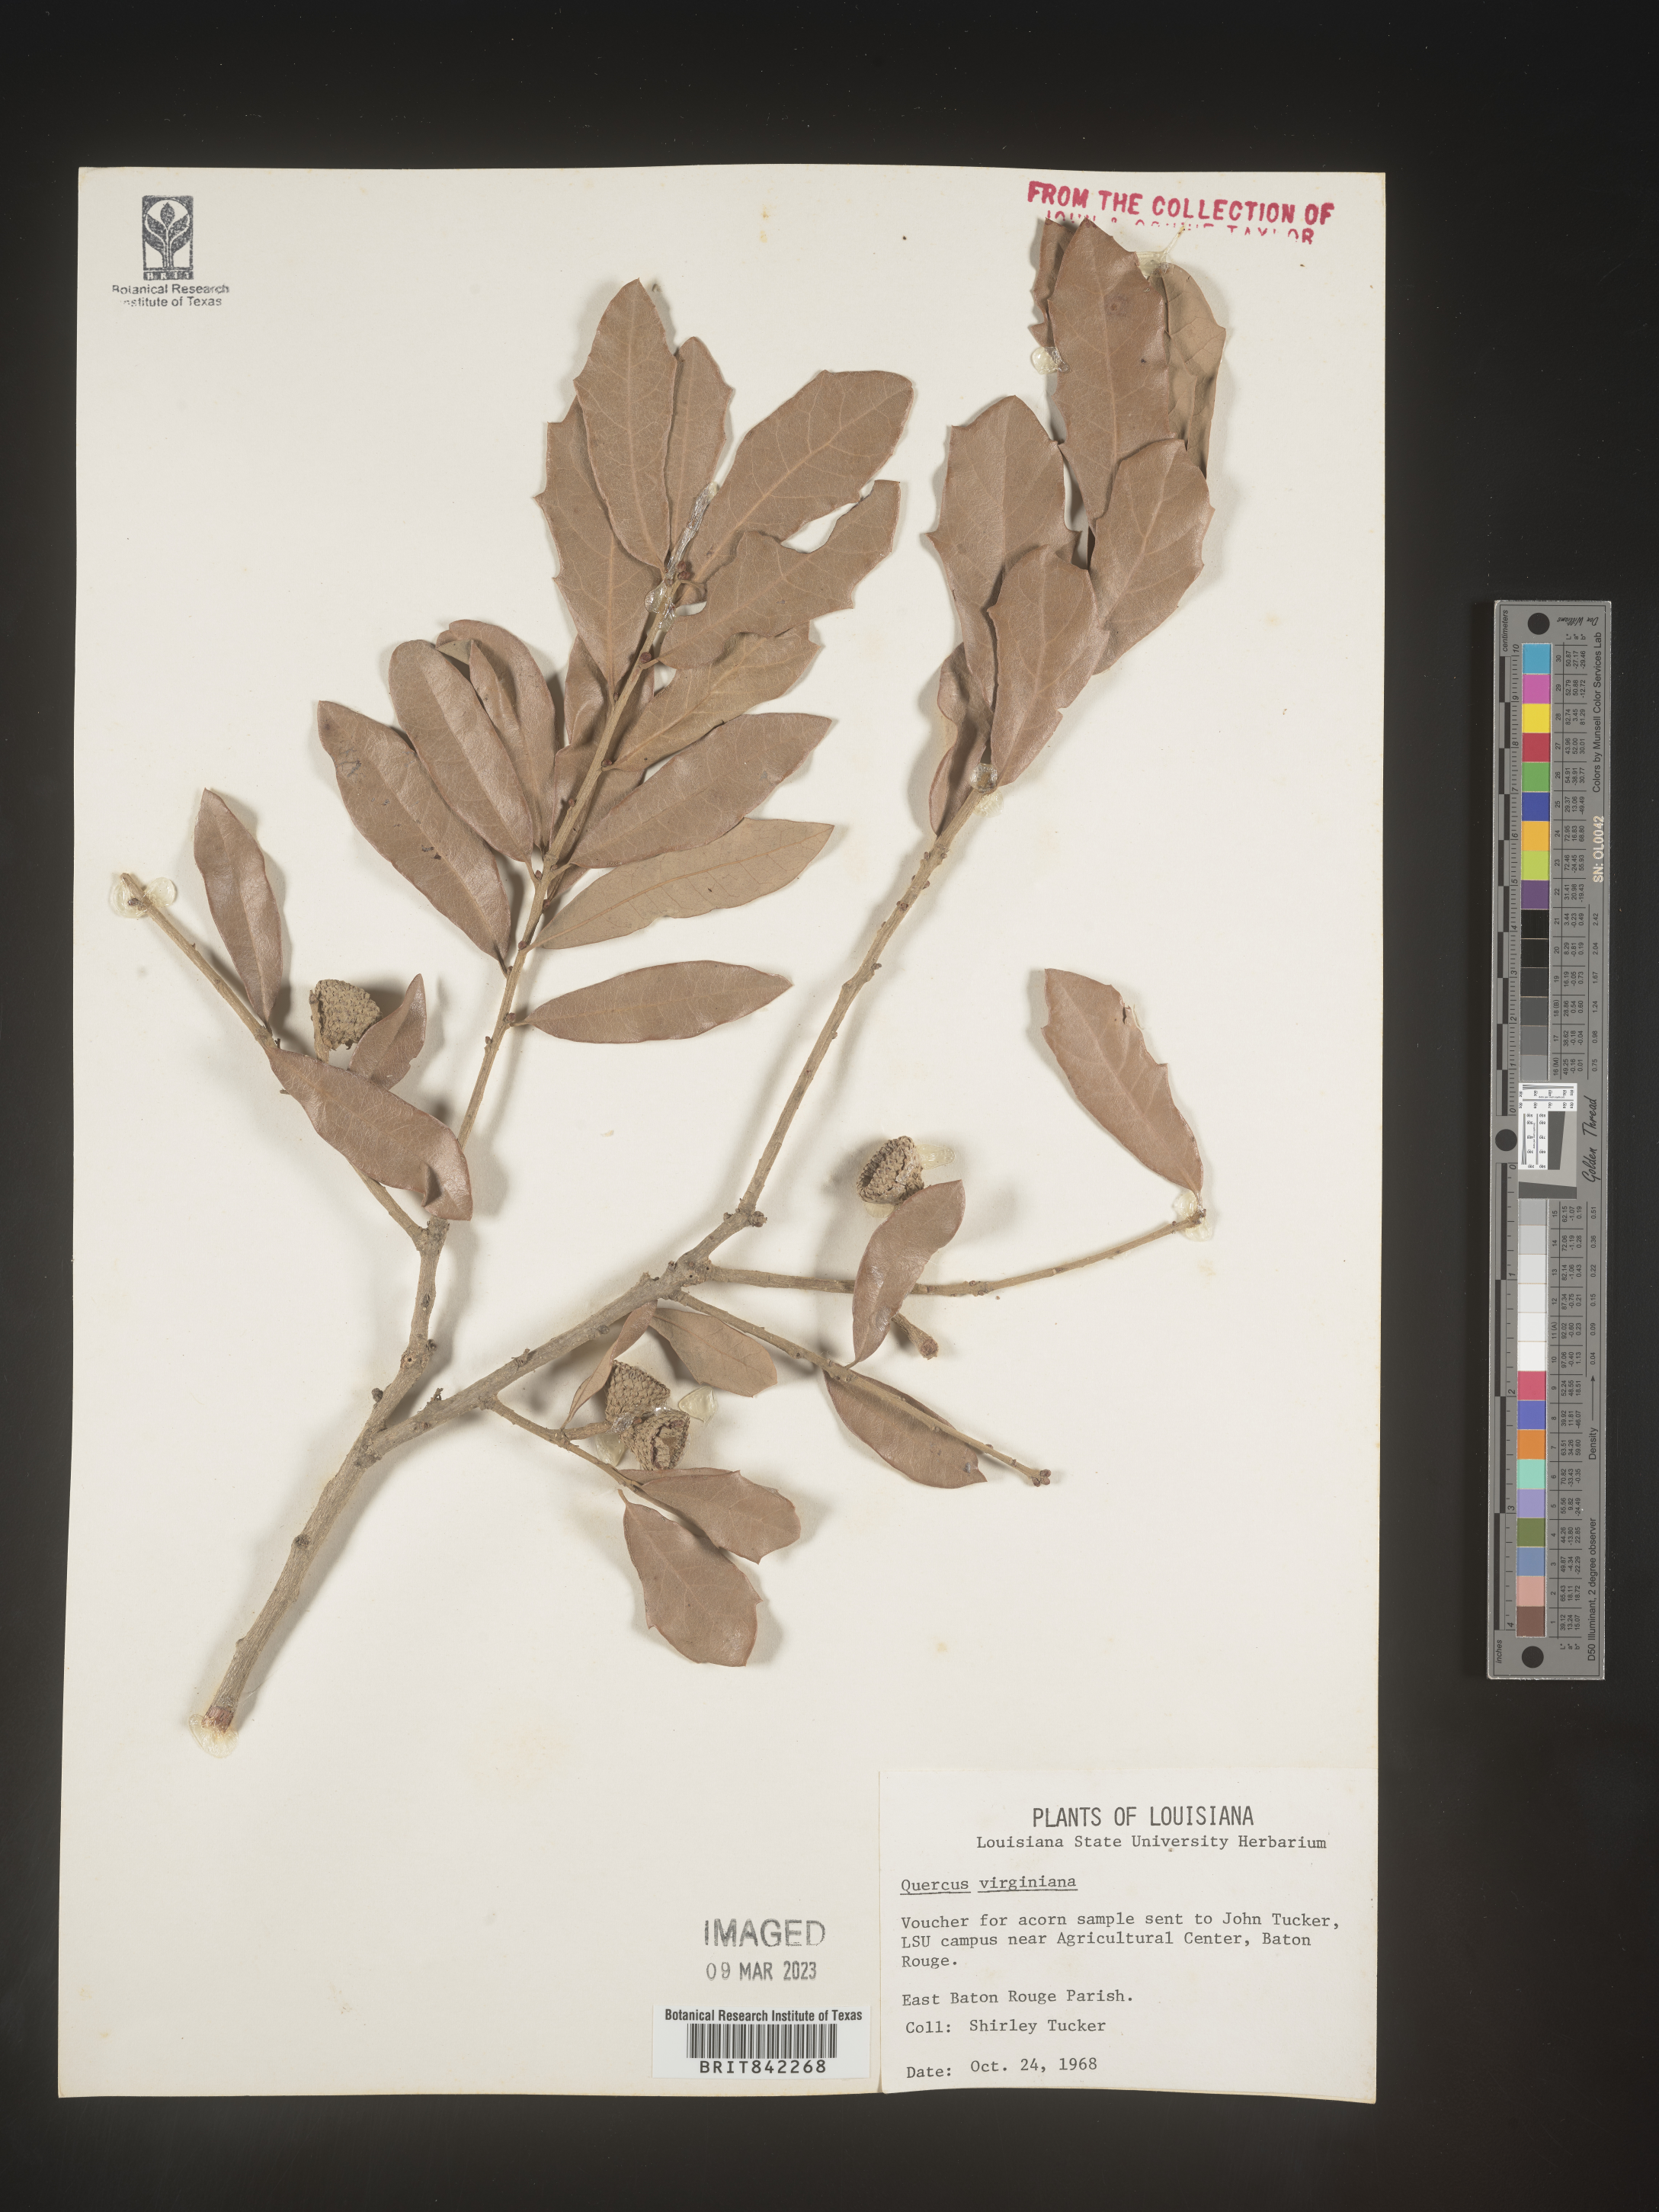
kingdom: Plantae
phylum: Tracheophyta
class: Magnoliopsida
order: Fagales
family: Fagaceae
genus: Quercus
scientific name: Quercus virginiana
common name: Southern live oak
